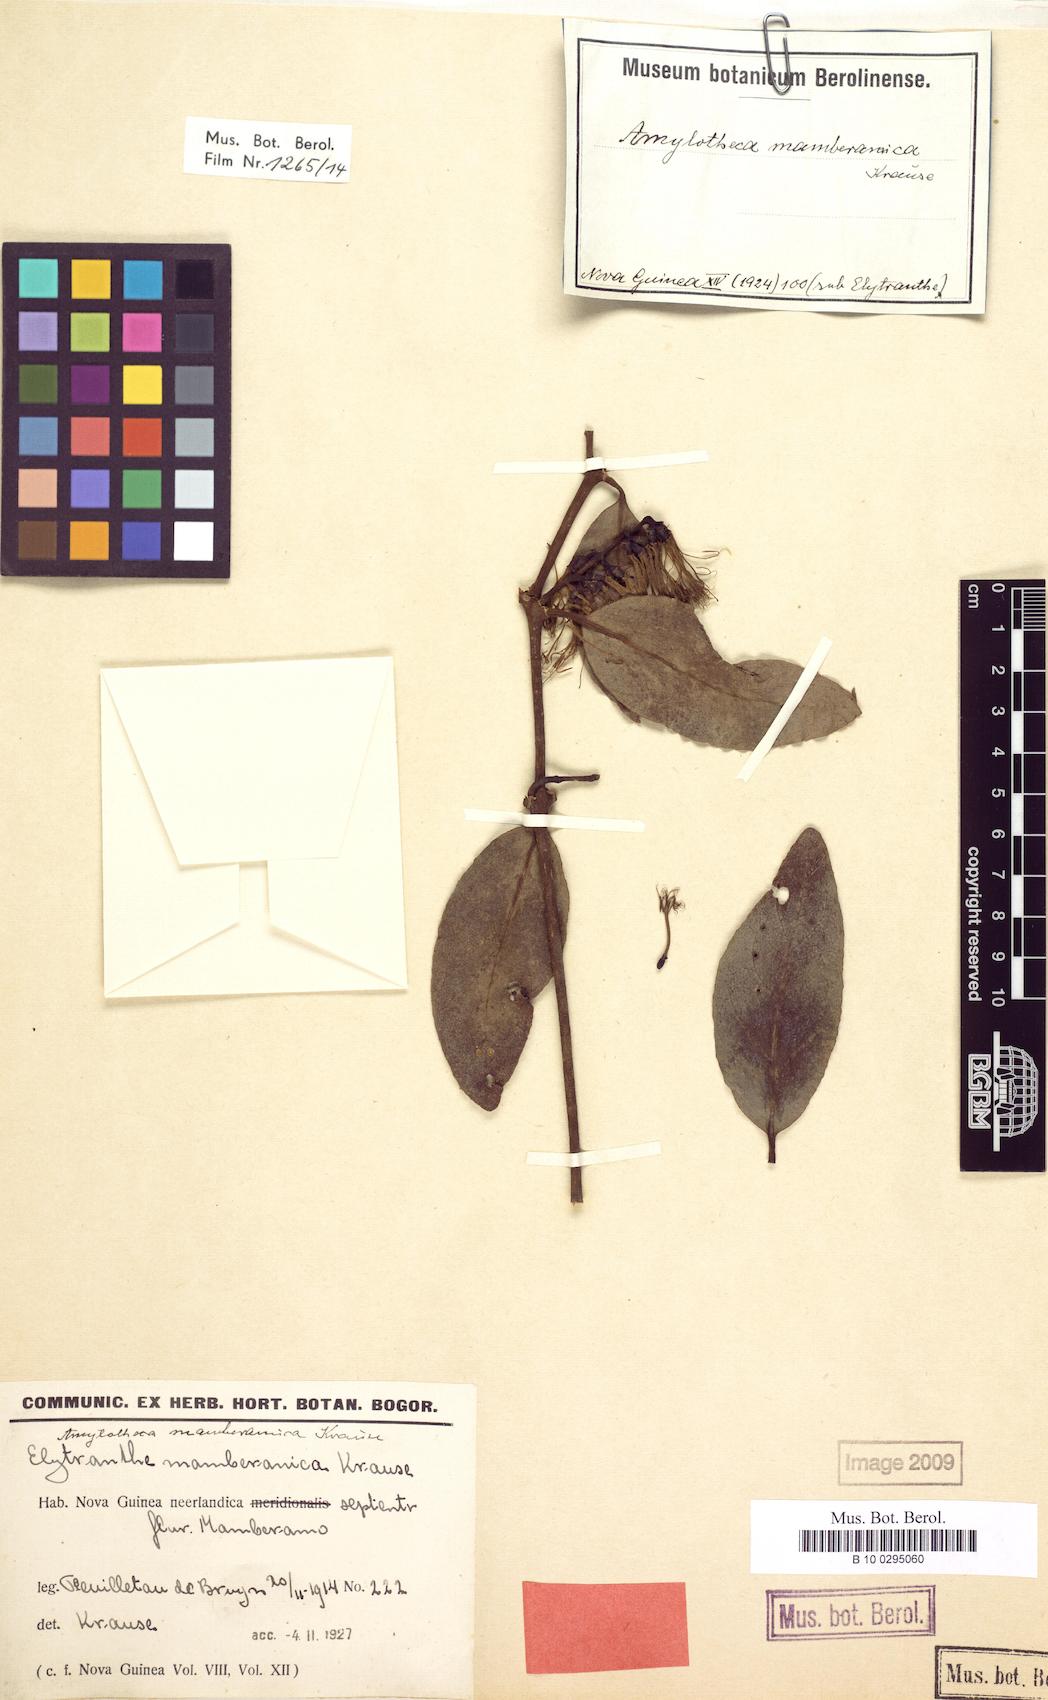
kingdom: Plantae
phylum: Tracheophyta
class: Magnoliopsida
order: Santalales
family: Loranthaceae
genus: Decaisnina
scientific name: Decaisnina djamuensis
